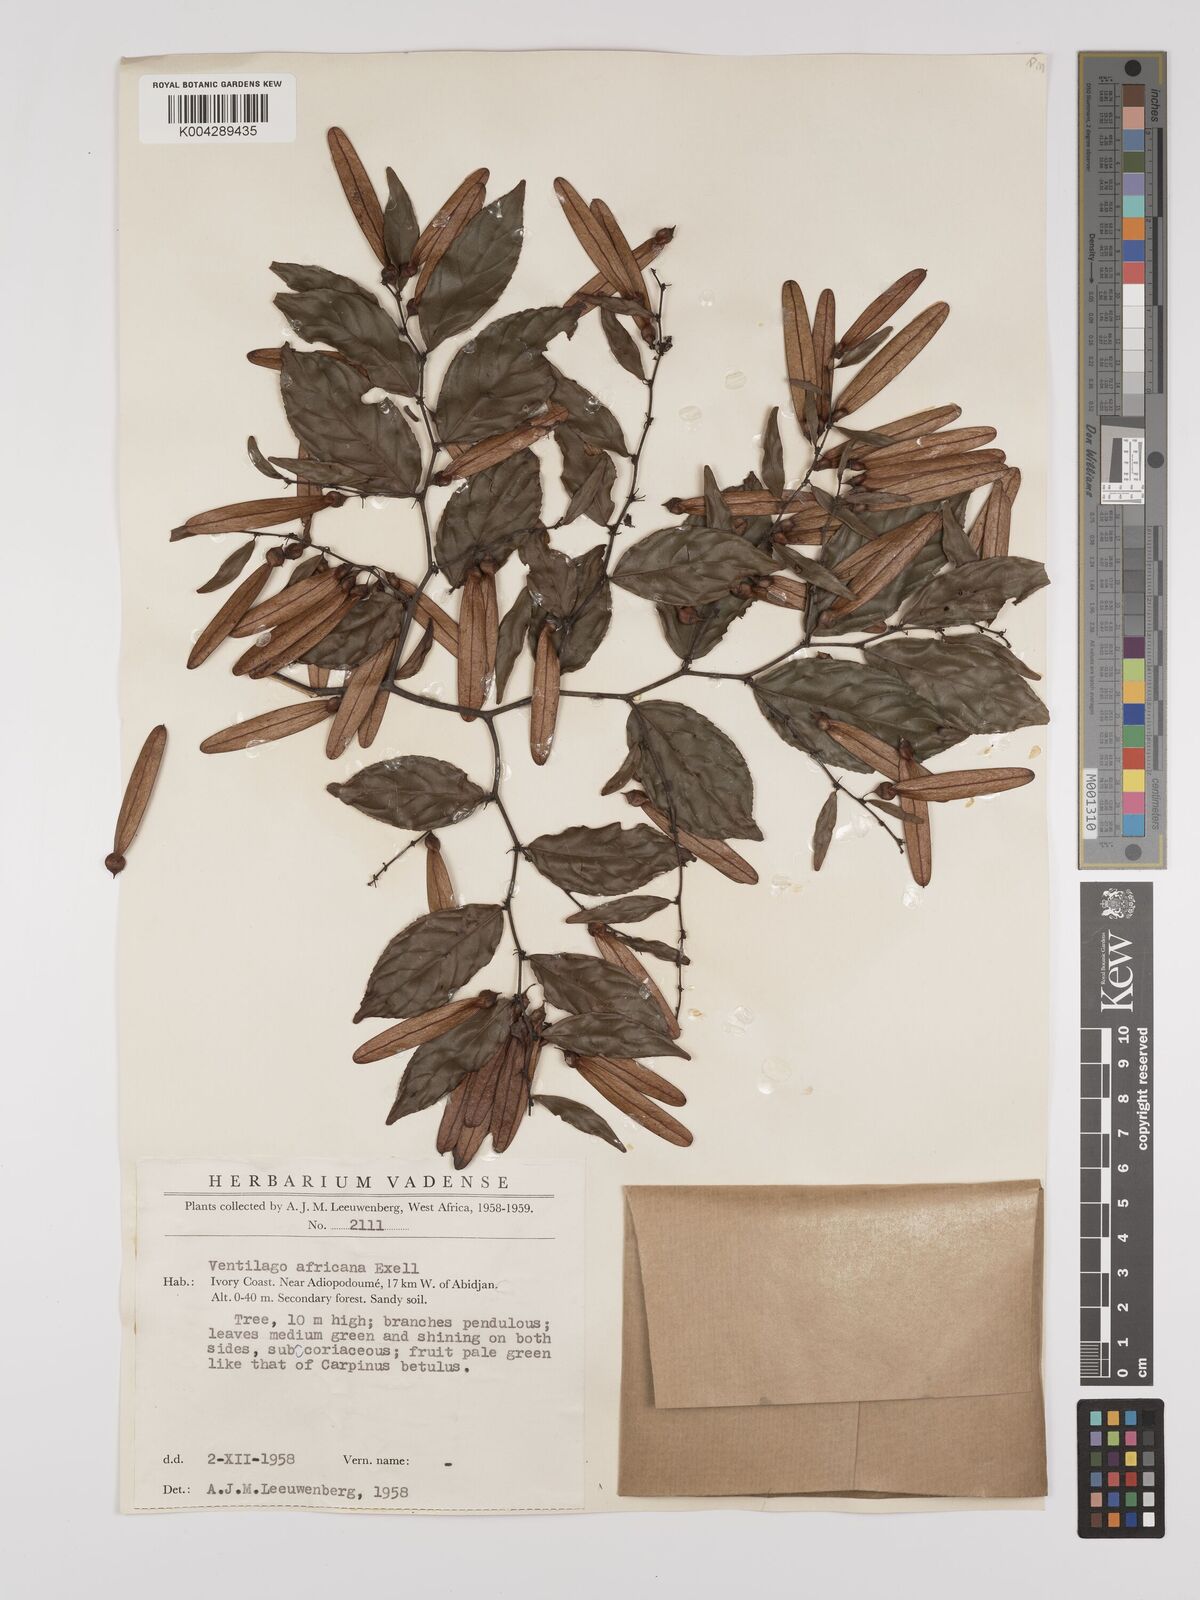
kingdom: Plantae
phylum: Tracheophyta
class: Magnoliopsida
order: Rosales
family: Rhamnaceae
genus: Ventilago
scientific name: Ventilago africana
